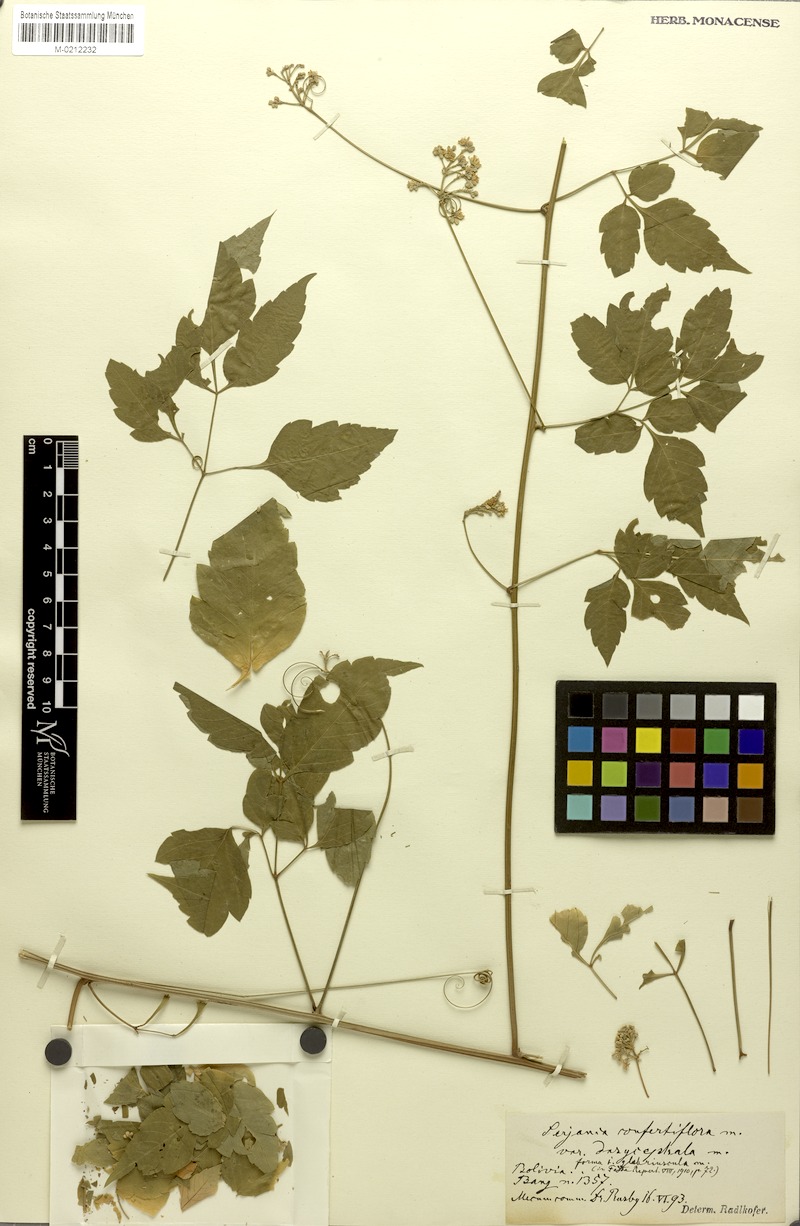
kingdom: Plantae
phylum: Tracheophyta
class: Magnoliopsida
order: Sapindales
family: Sapindaceae
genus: Serjania
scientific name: Serjania confertiflora
